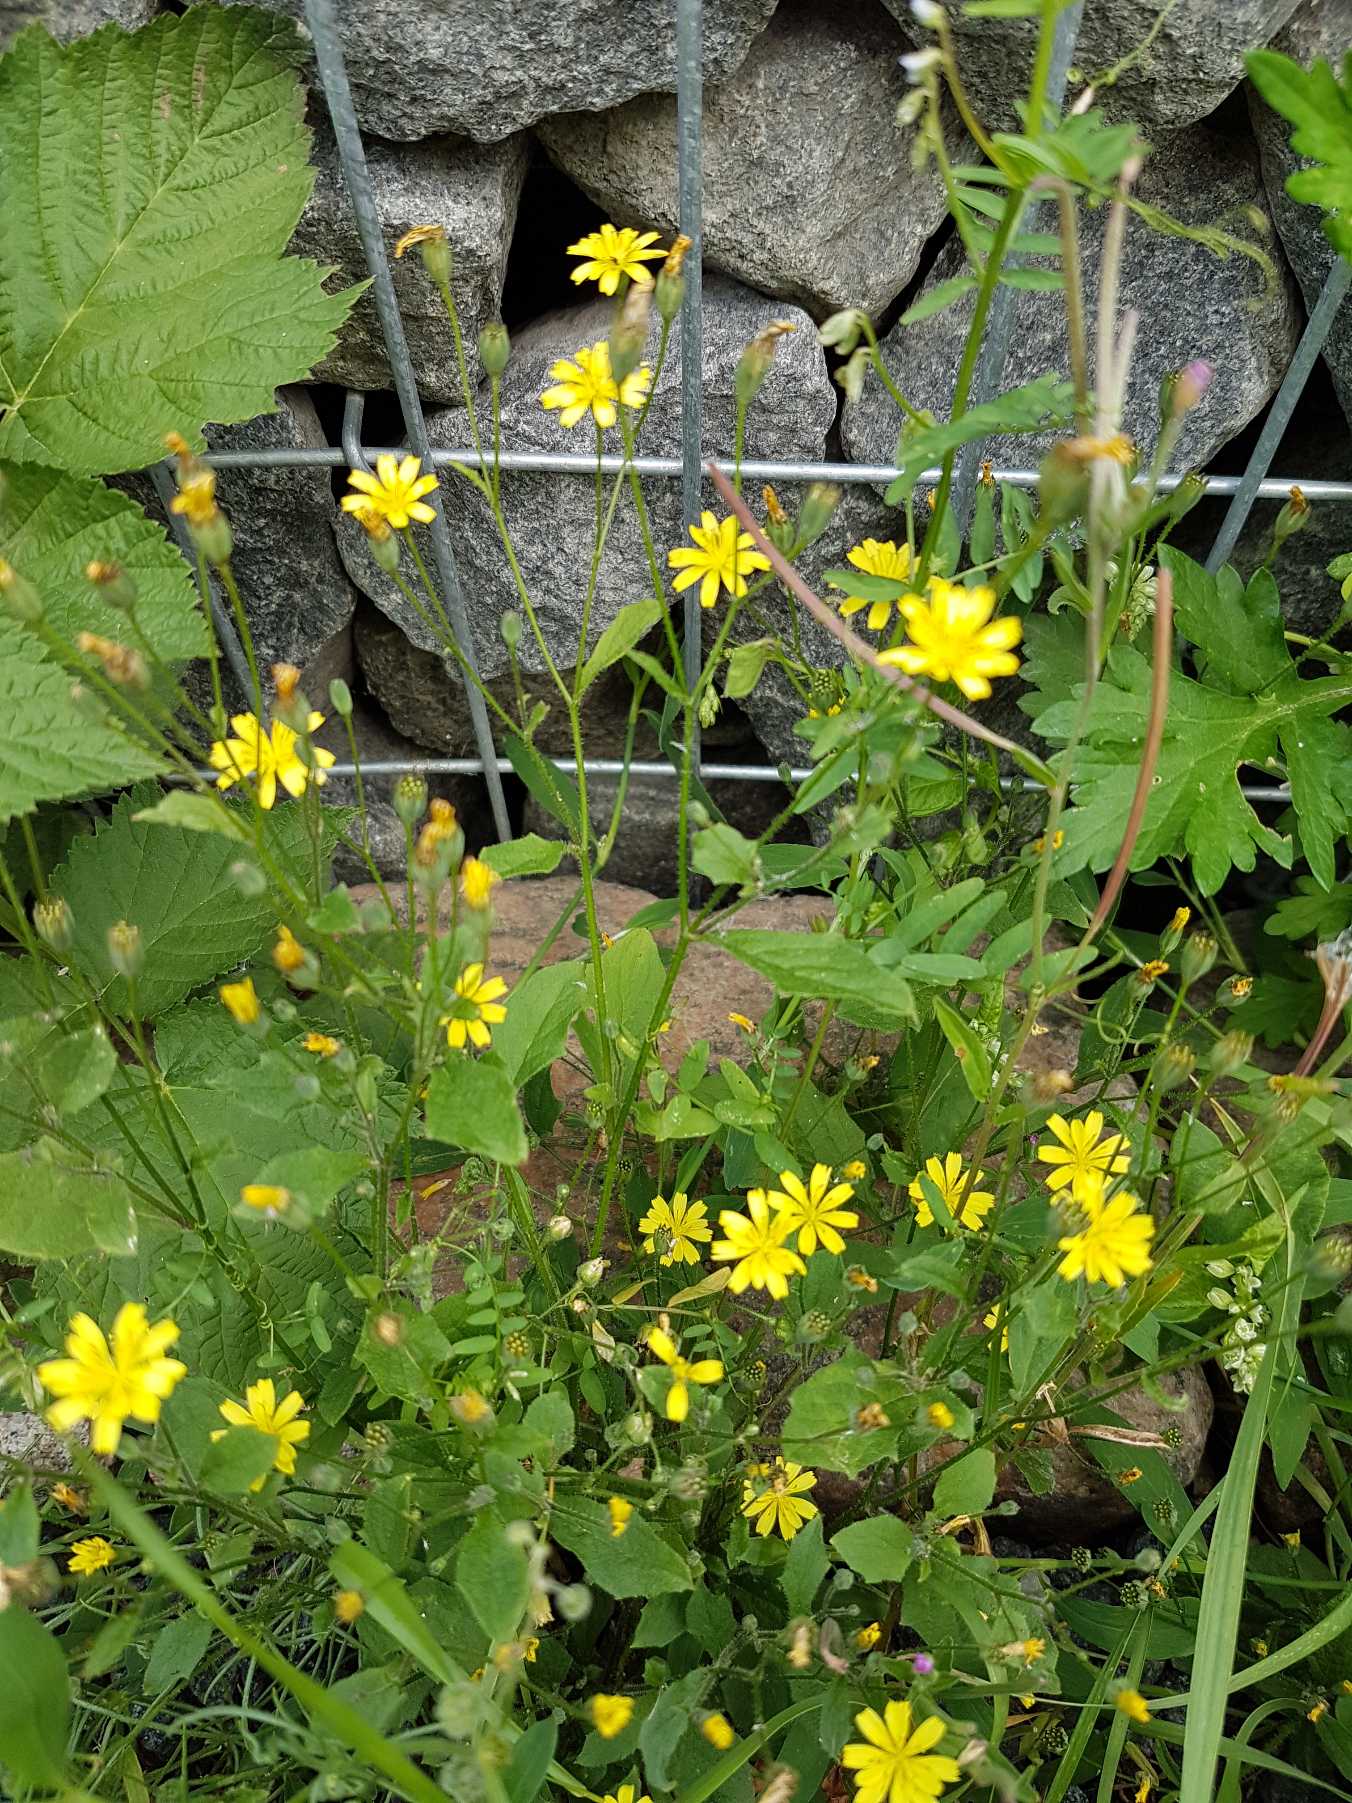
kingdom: Plantae
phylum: Tracheophyta
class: Magnoliopsida
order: Asterales
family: Asteraceae
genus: Lapsana
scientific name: Lapsana communis
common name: Haremad
